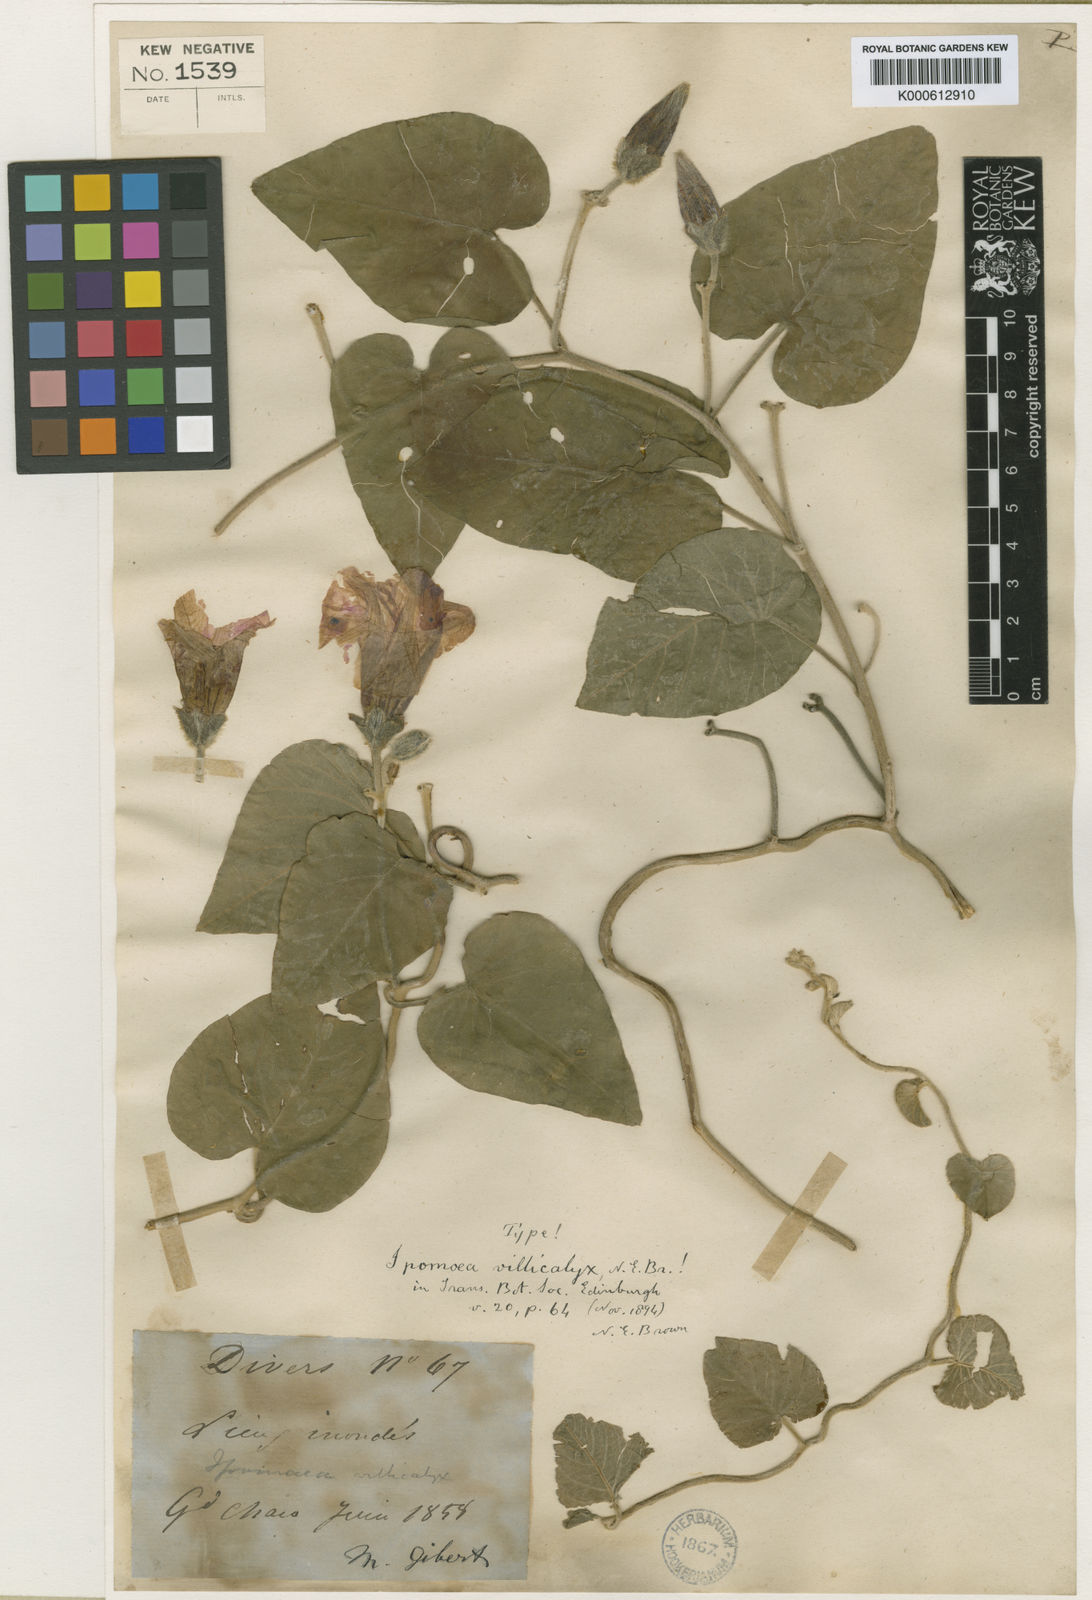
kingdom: Plantae
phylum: Tracheophyta
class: Magnoliopsida
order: Solanales
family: Convolvulaceae
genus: Ipomoea
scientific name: Ipomoea rubens
